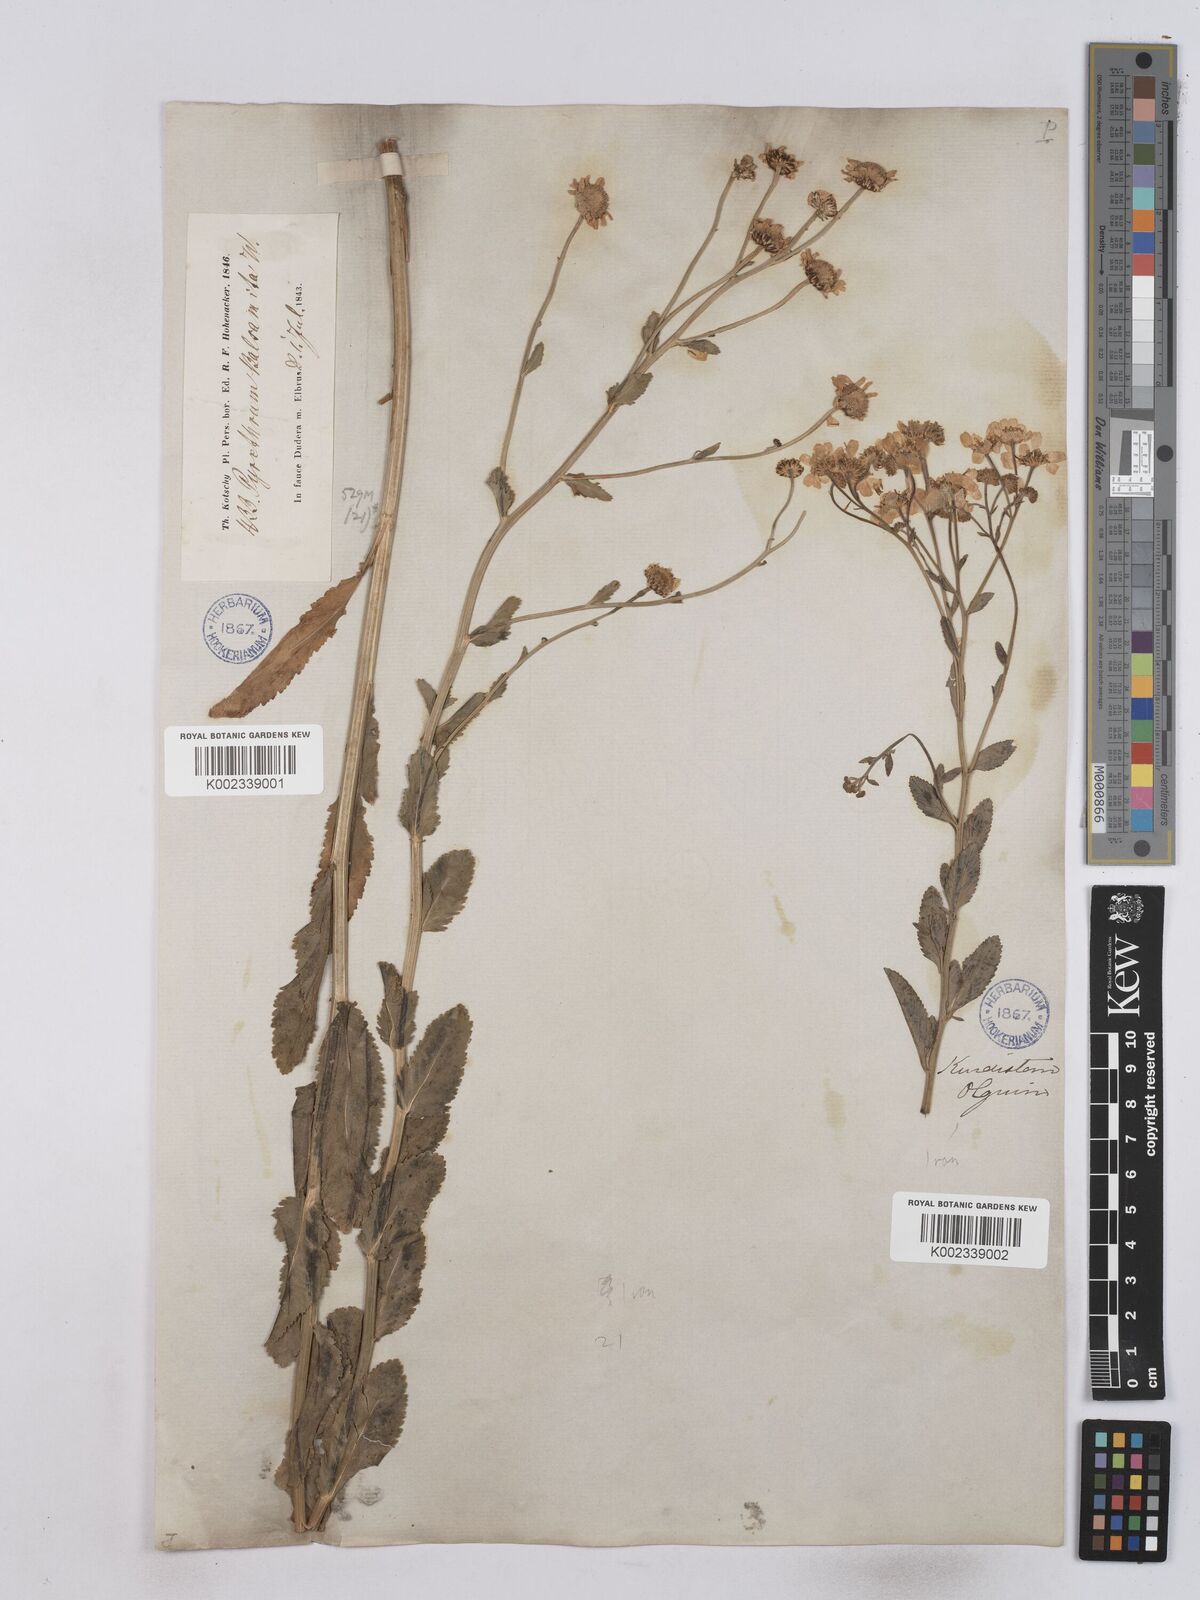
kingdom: Plantae
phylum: Tracheophyta
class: Magnoliopsida
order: Asterales
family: Asteraceae
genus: Tanacetum
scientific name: Tanacetum balsamita
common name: Costmary
